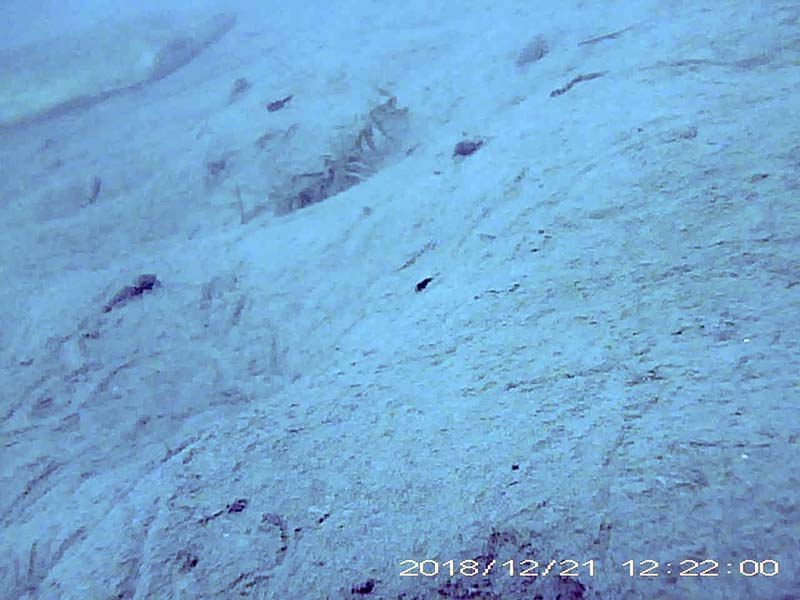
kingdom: Animalia
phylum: Chordata
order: Siluriformes
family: Siluridae
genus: Silurus
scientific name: Silurus
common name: ナマズ
